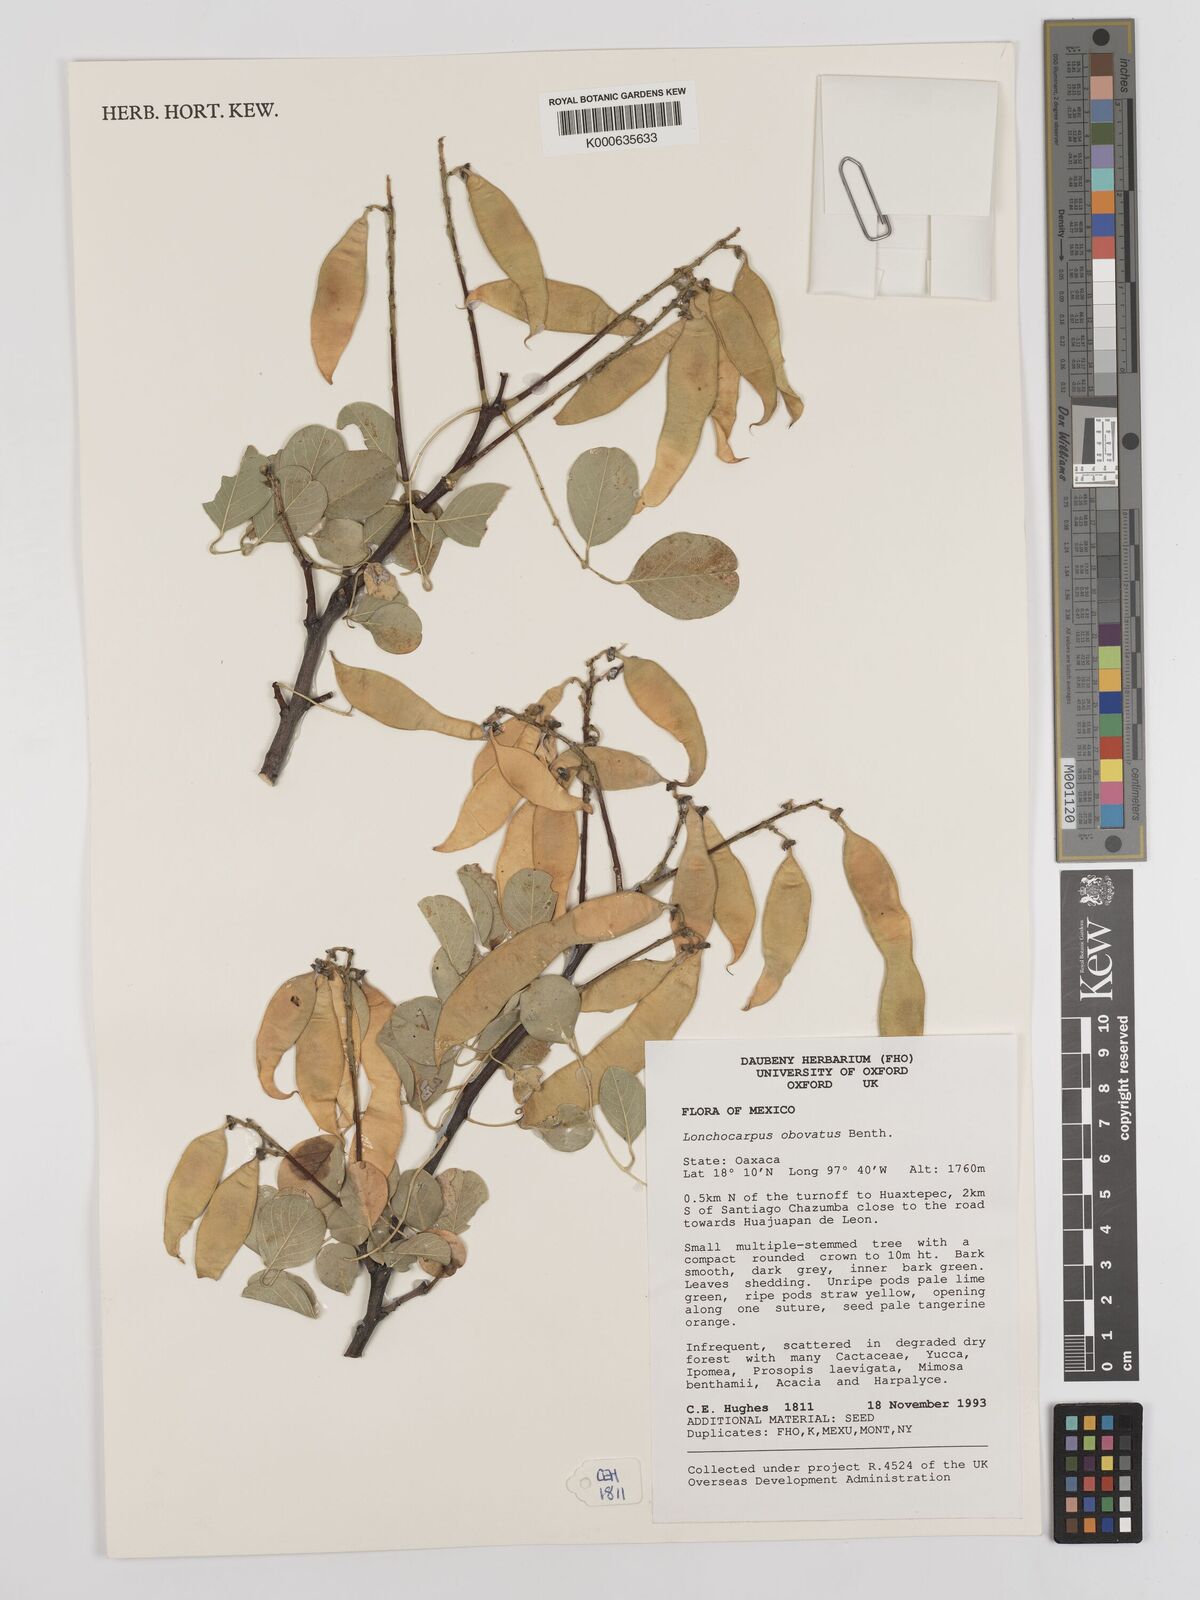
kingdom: Plantae
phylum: Tracheophyta
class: Magnoliopsida
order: Fabales
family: Fabaceae
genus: Lonchocarpus
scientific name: Lonchocarpus obovatus
